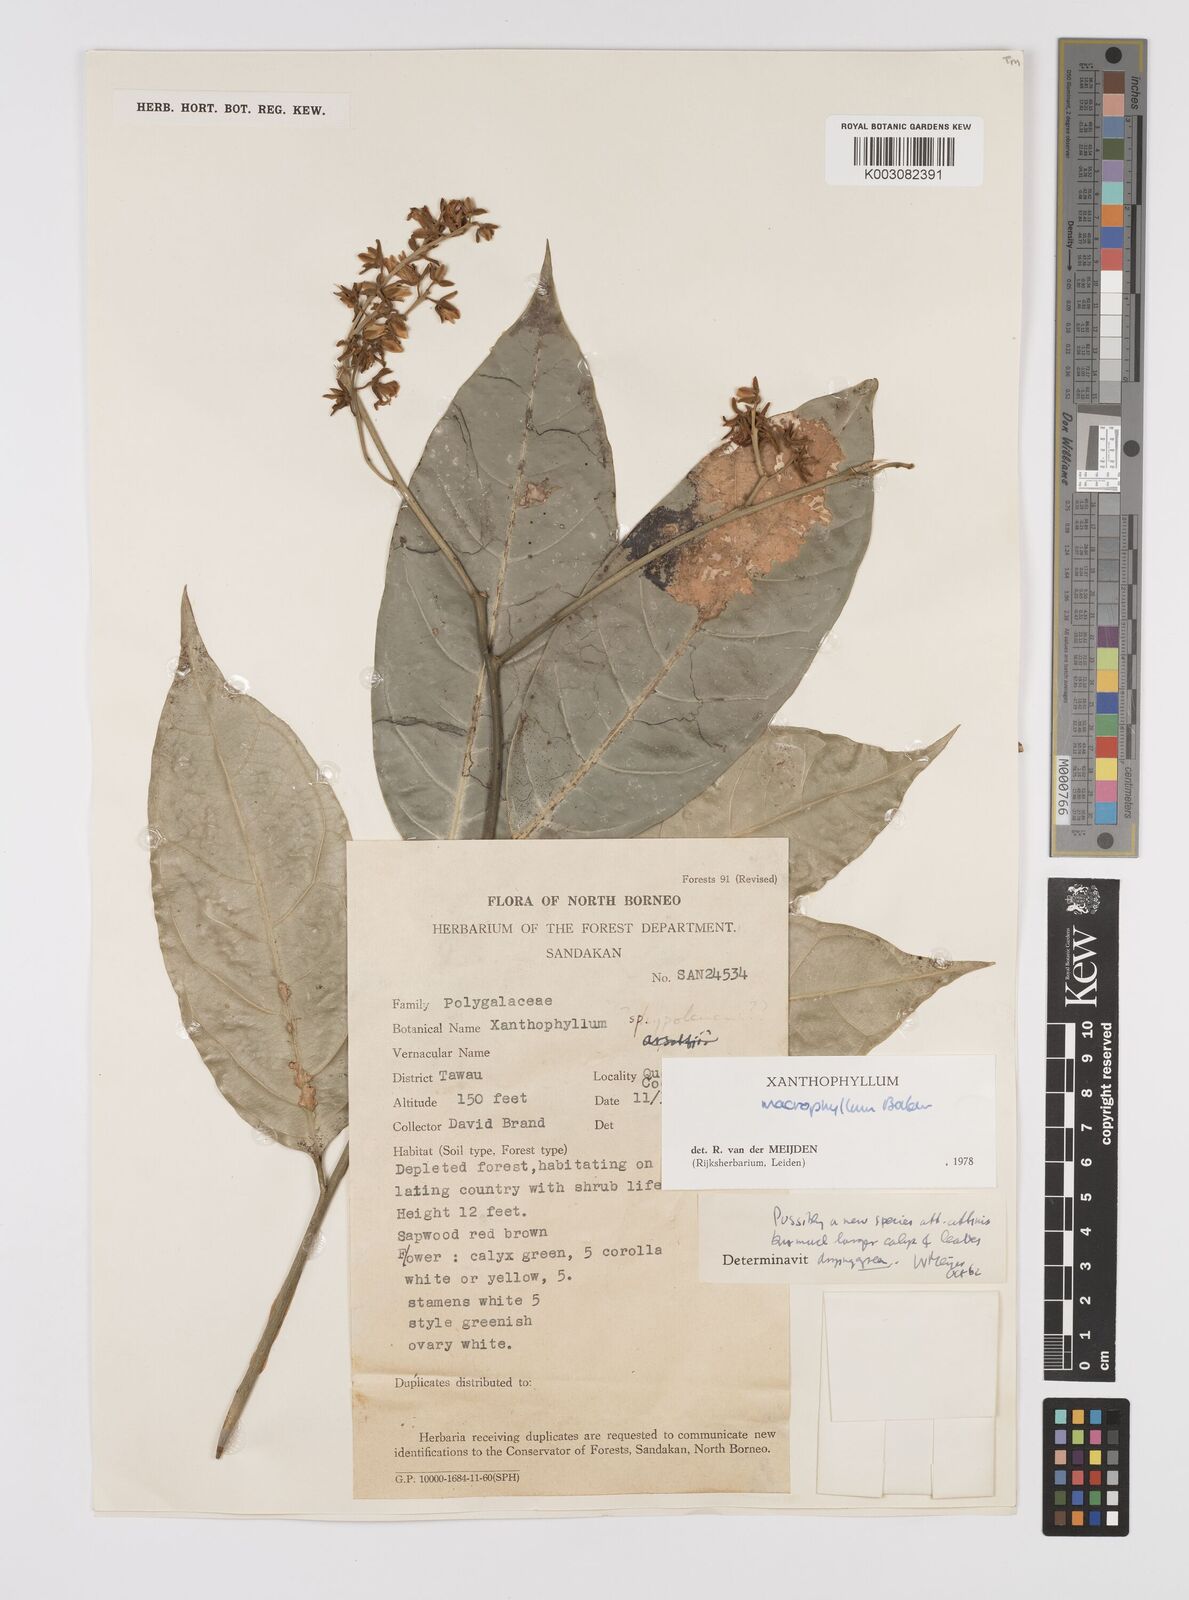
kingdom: Plantae
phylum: Tracheophyta
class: Magnoliopsida
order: Fabales
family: Polygalaceae
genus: Xanthophyllum
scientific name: Xanthophyllum macrophyllum
